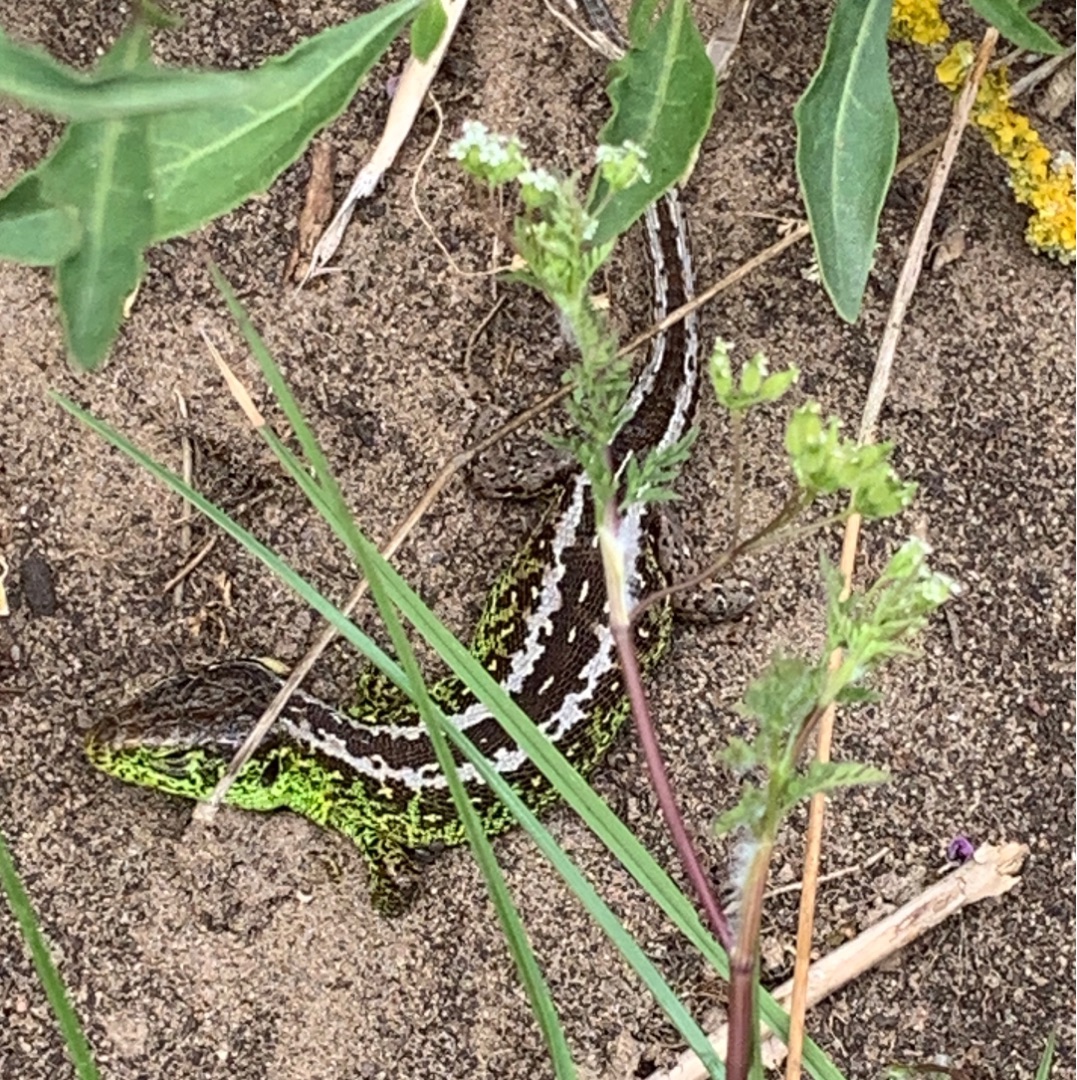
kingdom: Animalia
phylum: Chordata
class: Squamata
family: Lacertidae
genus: Lacerta
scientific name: Lacerta agilis
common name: Markfirben
